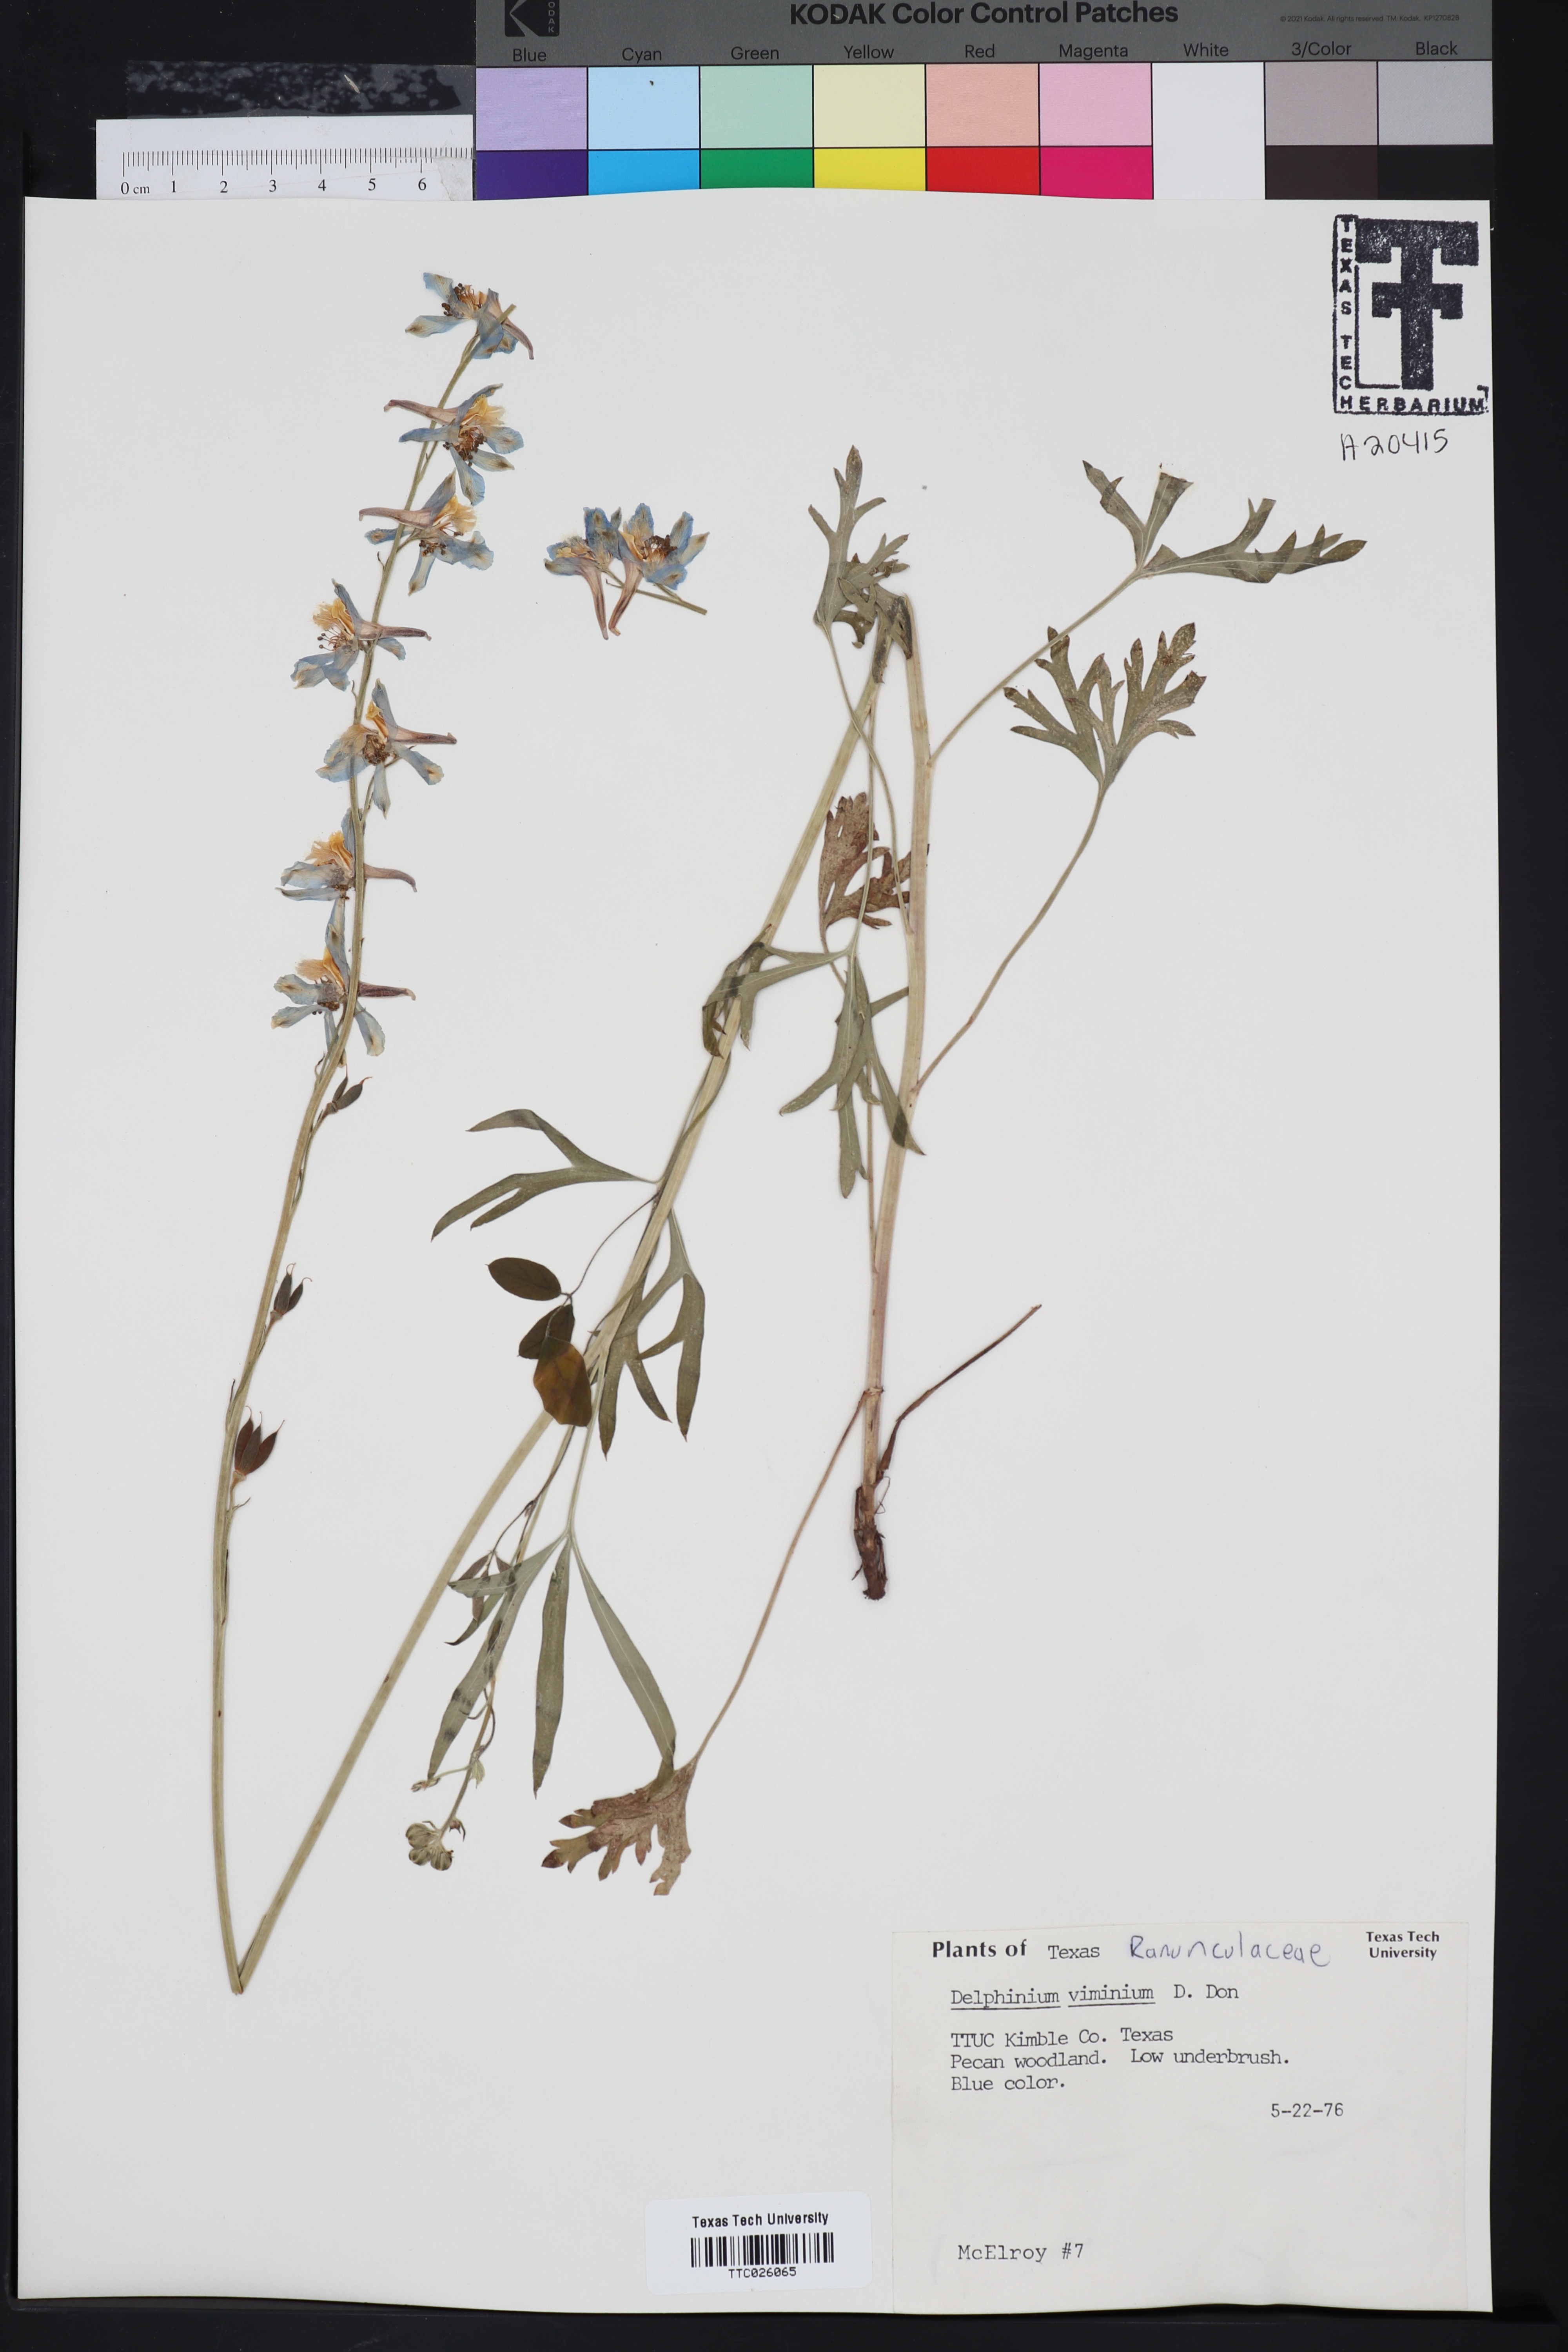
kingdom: Plantae
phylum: Tracheophyta
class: Magnoliopsida
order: Ranunculales
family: Ranunculaceae
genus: Delphinium
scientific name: Delphinium carolinianum
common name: Carolina larkspur
